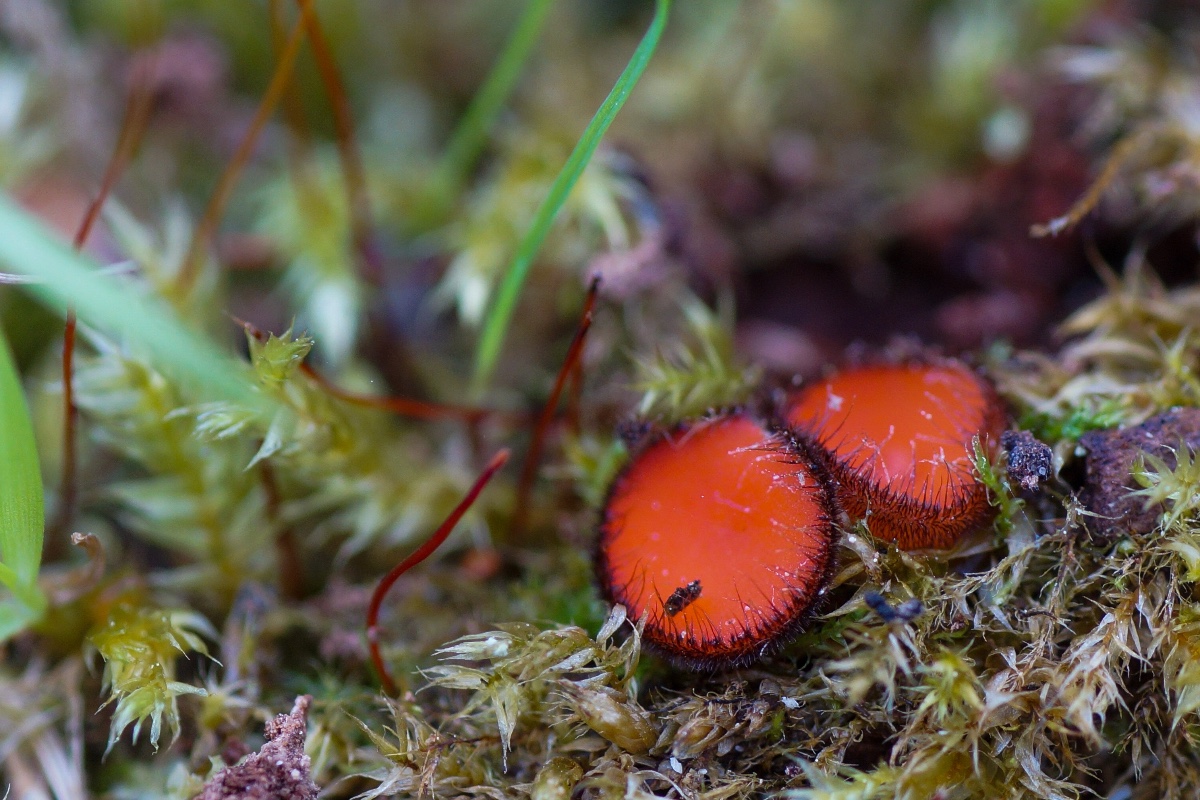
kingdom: Fungi
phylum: Ascomycota
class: Pezizomycetes
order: Pezizales
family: Pyronemataceae
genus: Scutellinia
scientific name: Scutellinia scutellata
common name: frynset skjoldbæger
